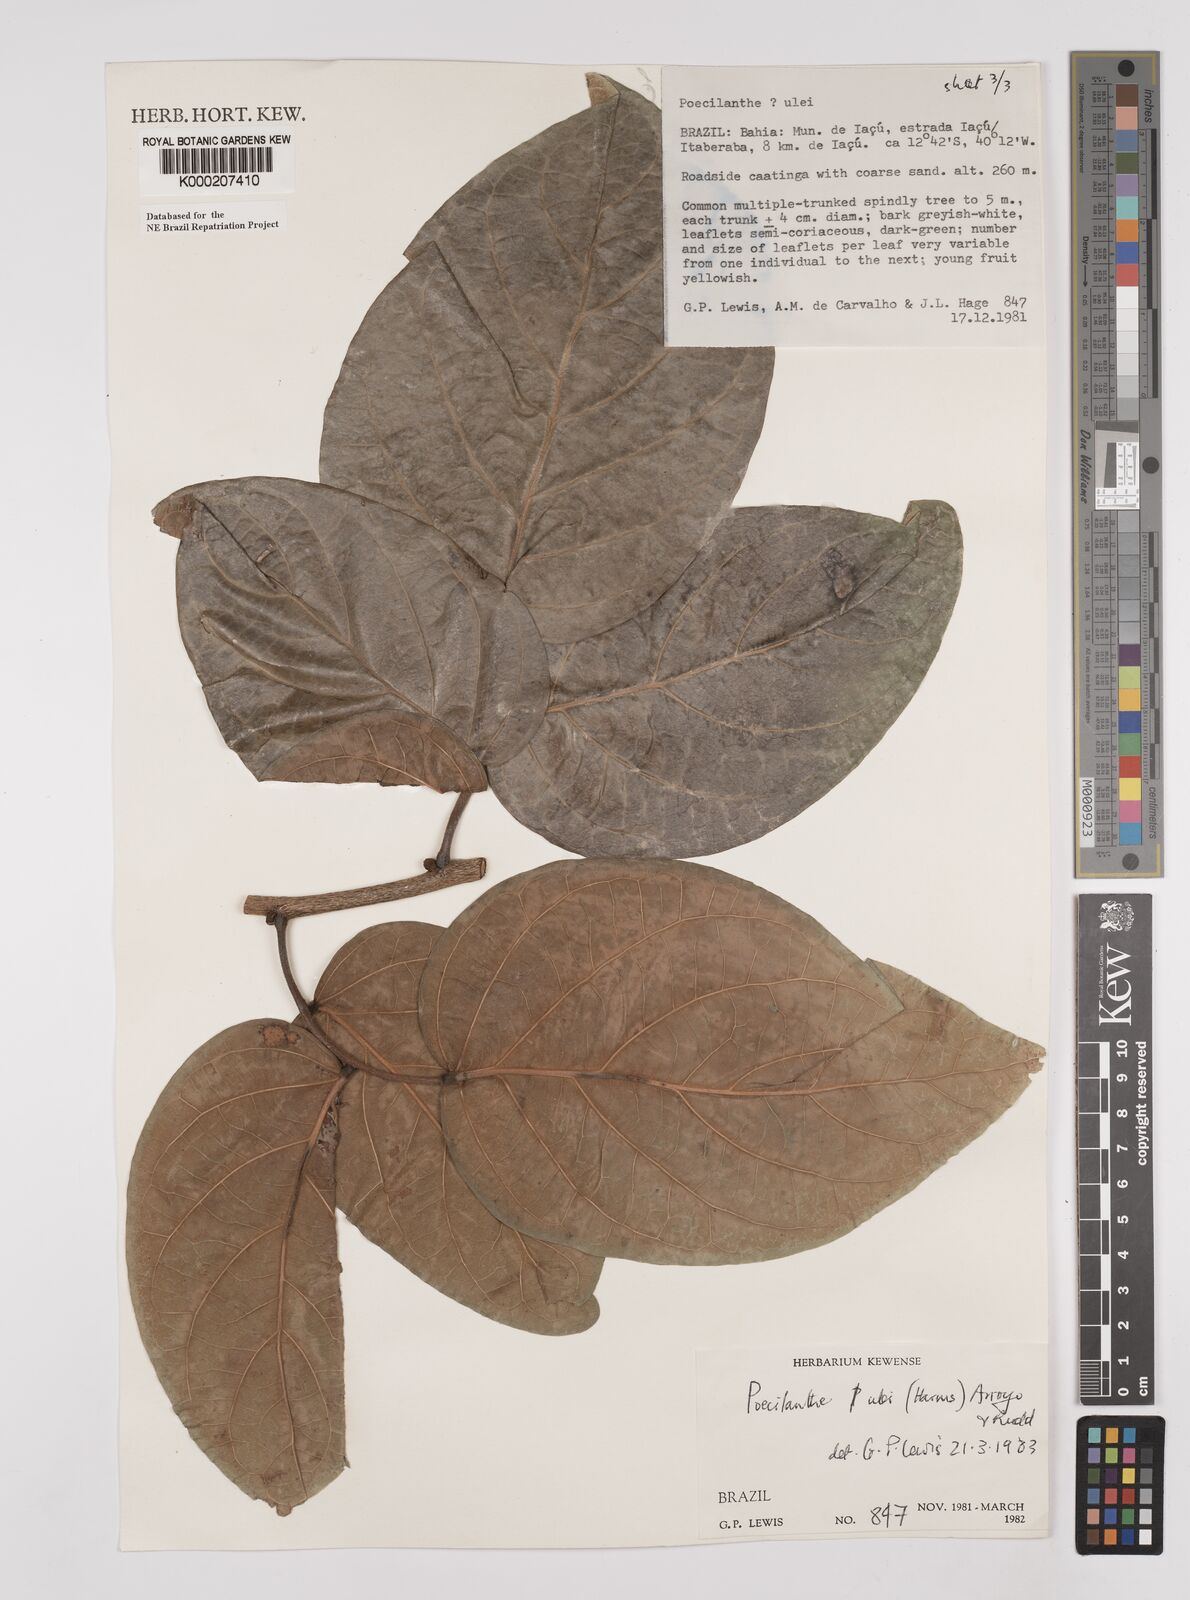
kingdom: Plantae
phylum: Tracheophyta
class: Magnoliopsida
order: Fabales
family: Fabaceae
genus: Poecilanthe
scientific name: Poecilanthe ulei
